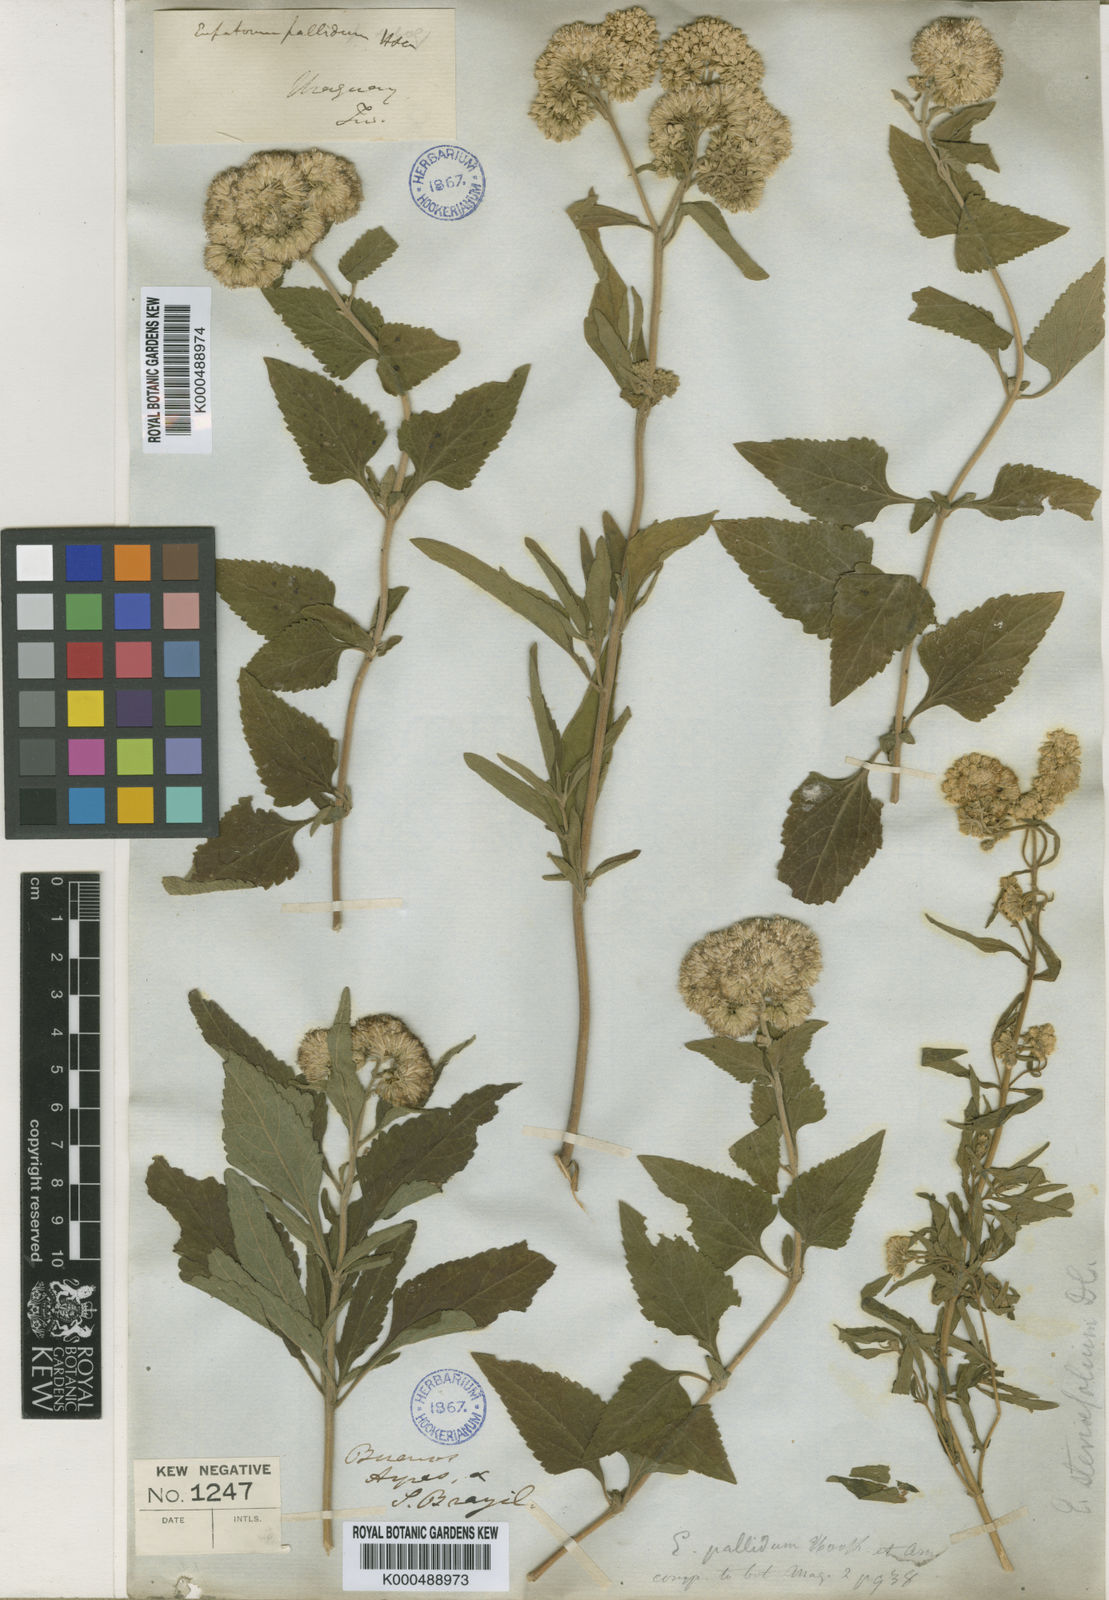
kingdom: Plantae
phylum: Tracheophyta
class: Magnoliopsida
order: Asterales
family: Asteraceae
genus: Austroeupatorium
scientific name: Austroeupatorium inulifolium
